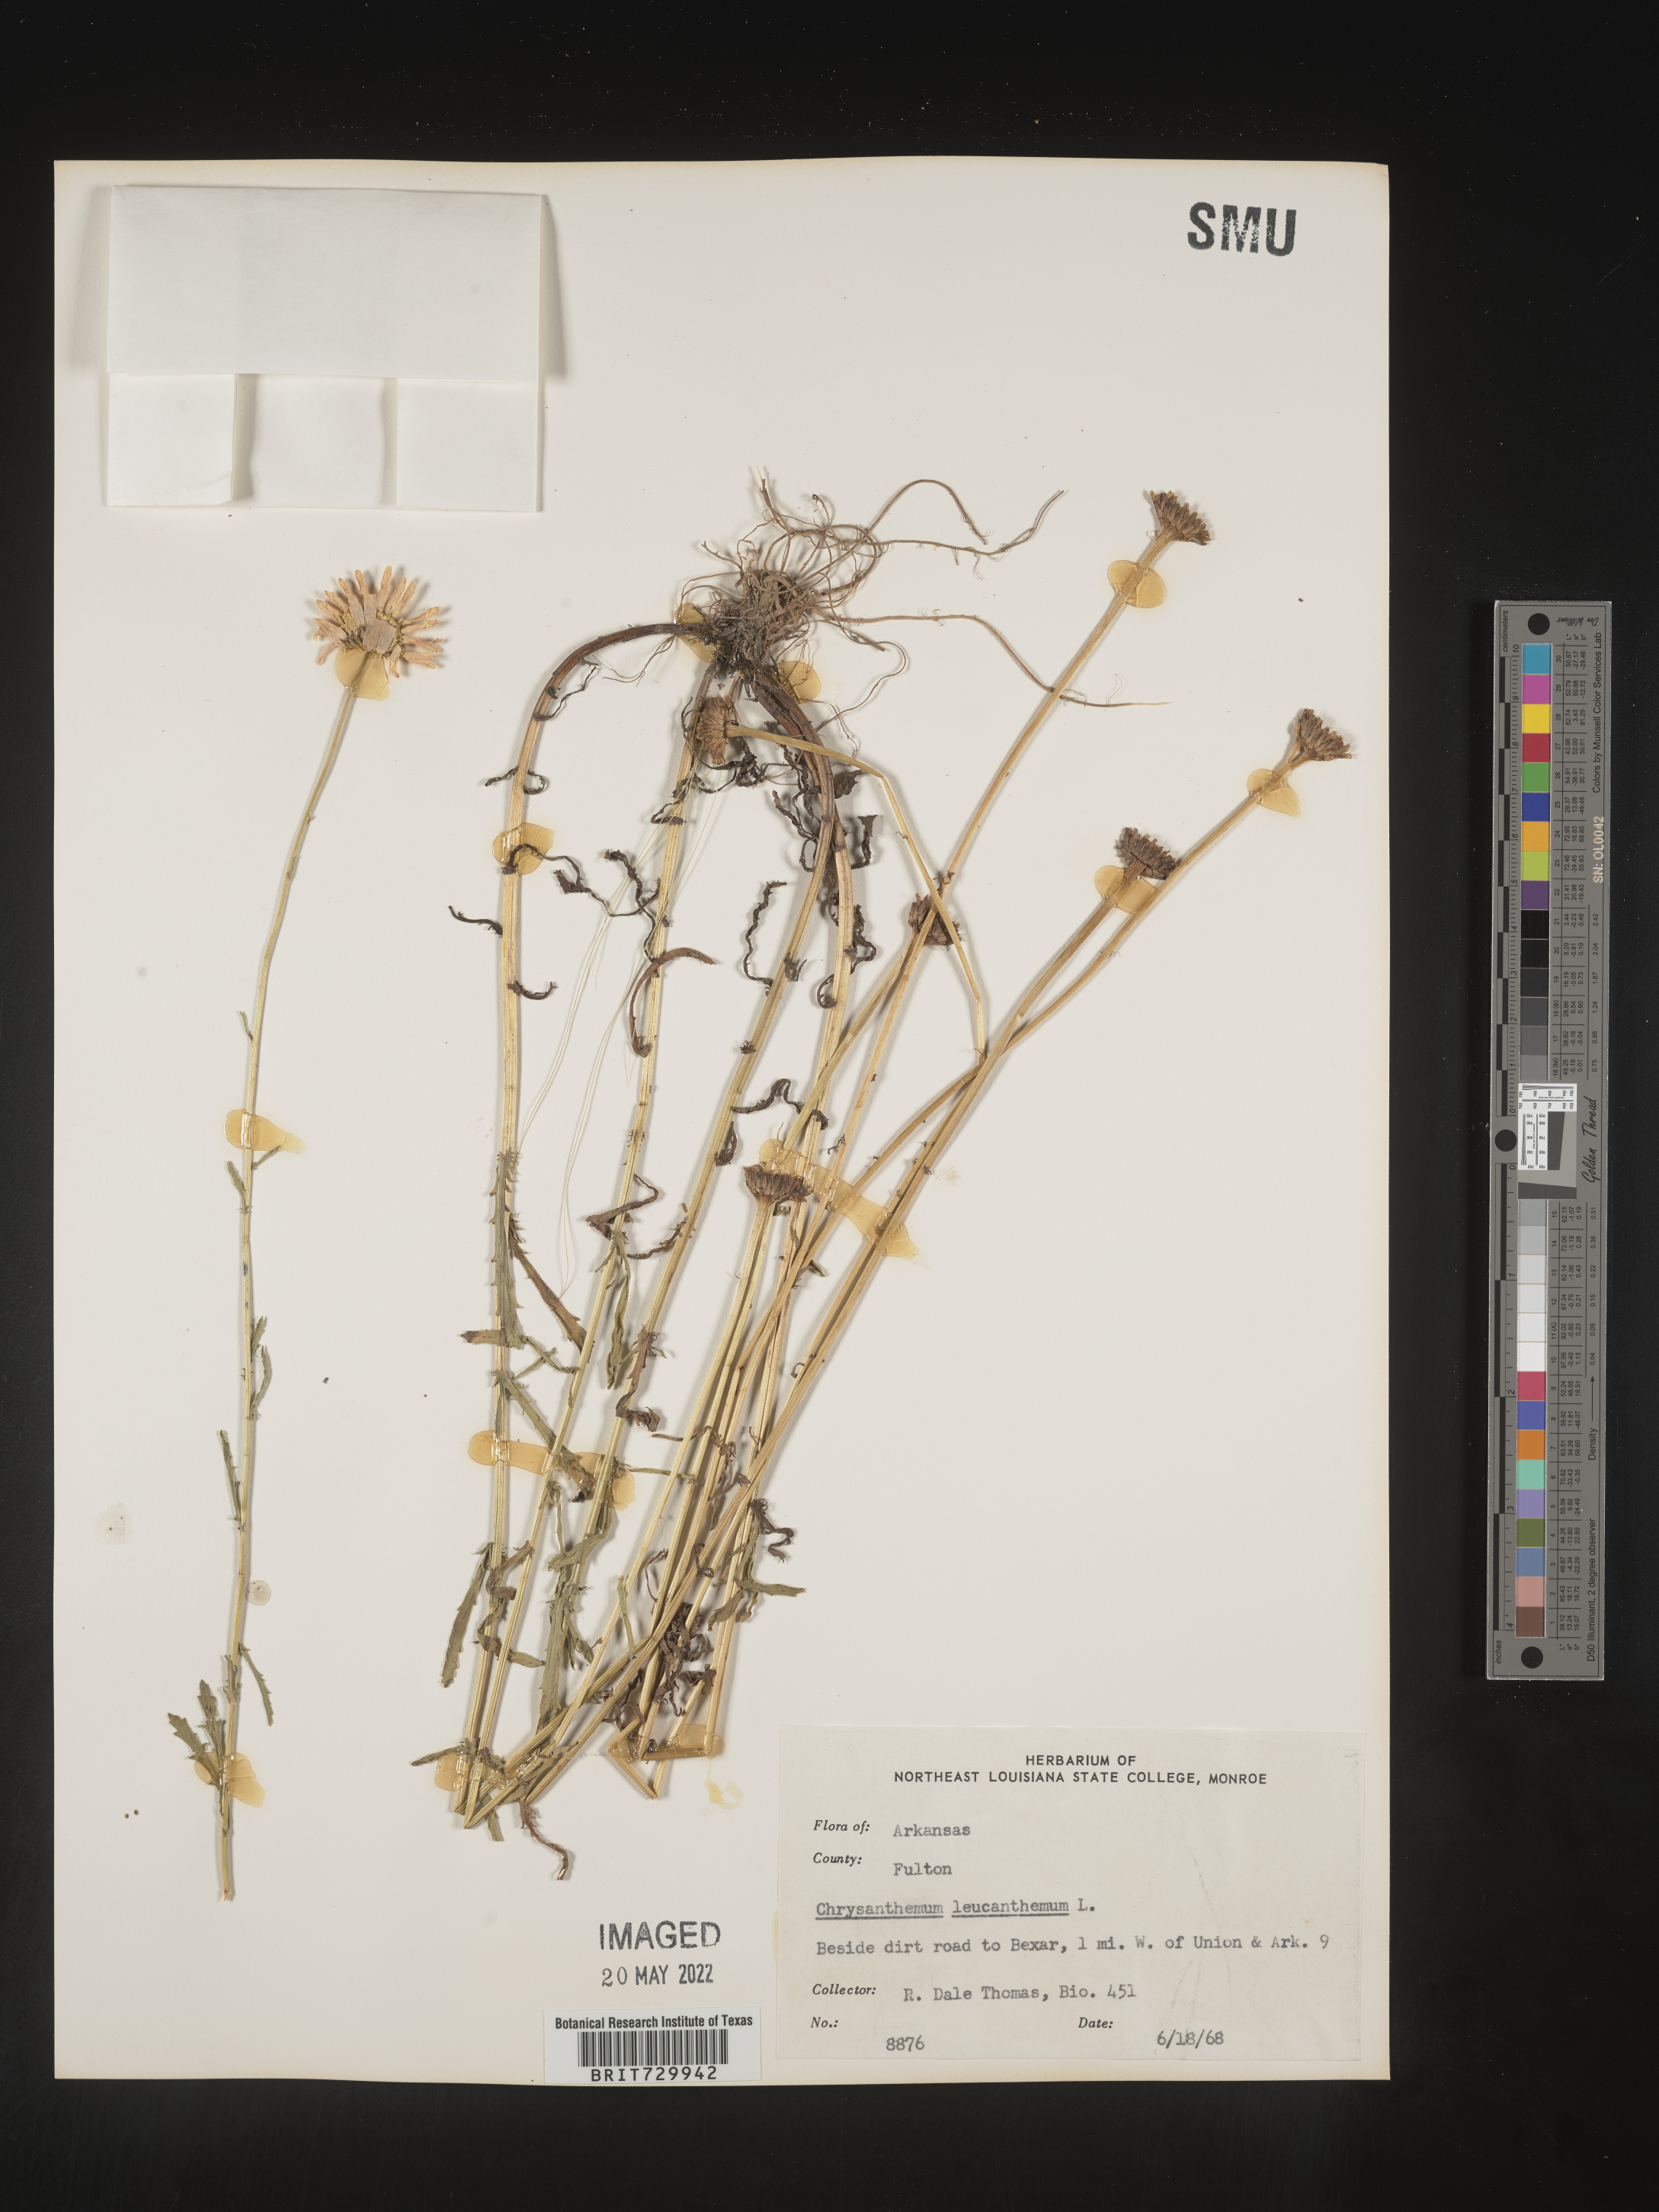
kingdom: Plantae
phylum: Tracheophyta
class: Magnoliopsida
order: Asterales
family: Asteraceae
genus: Leucanthemum
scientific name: Leucanthemum vulgare
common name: Oxeye daisy
